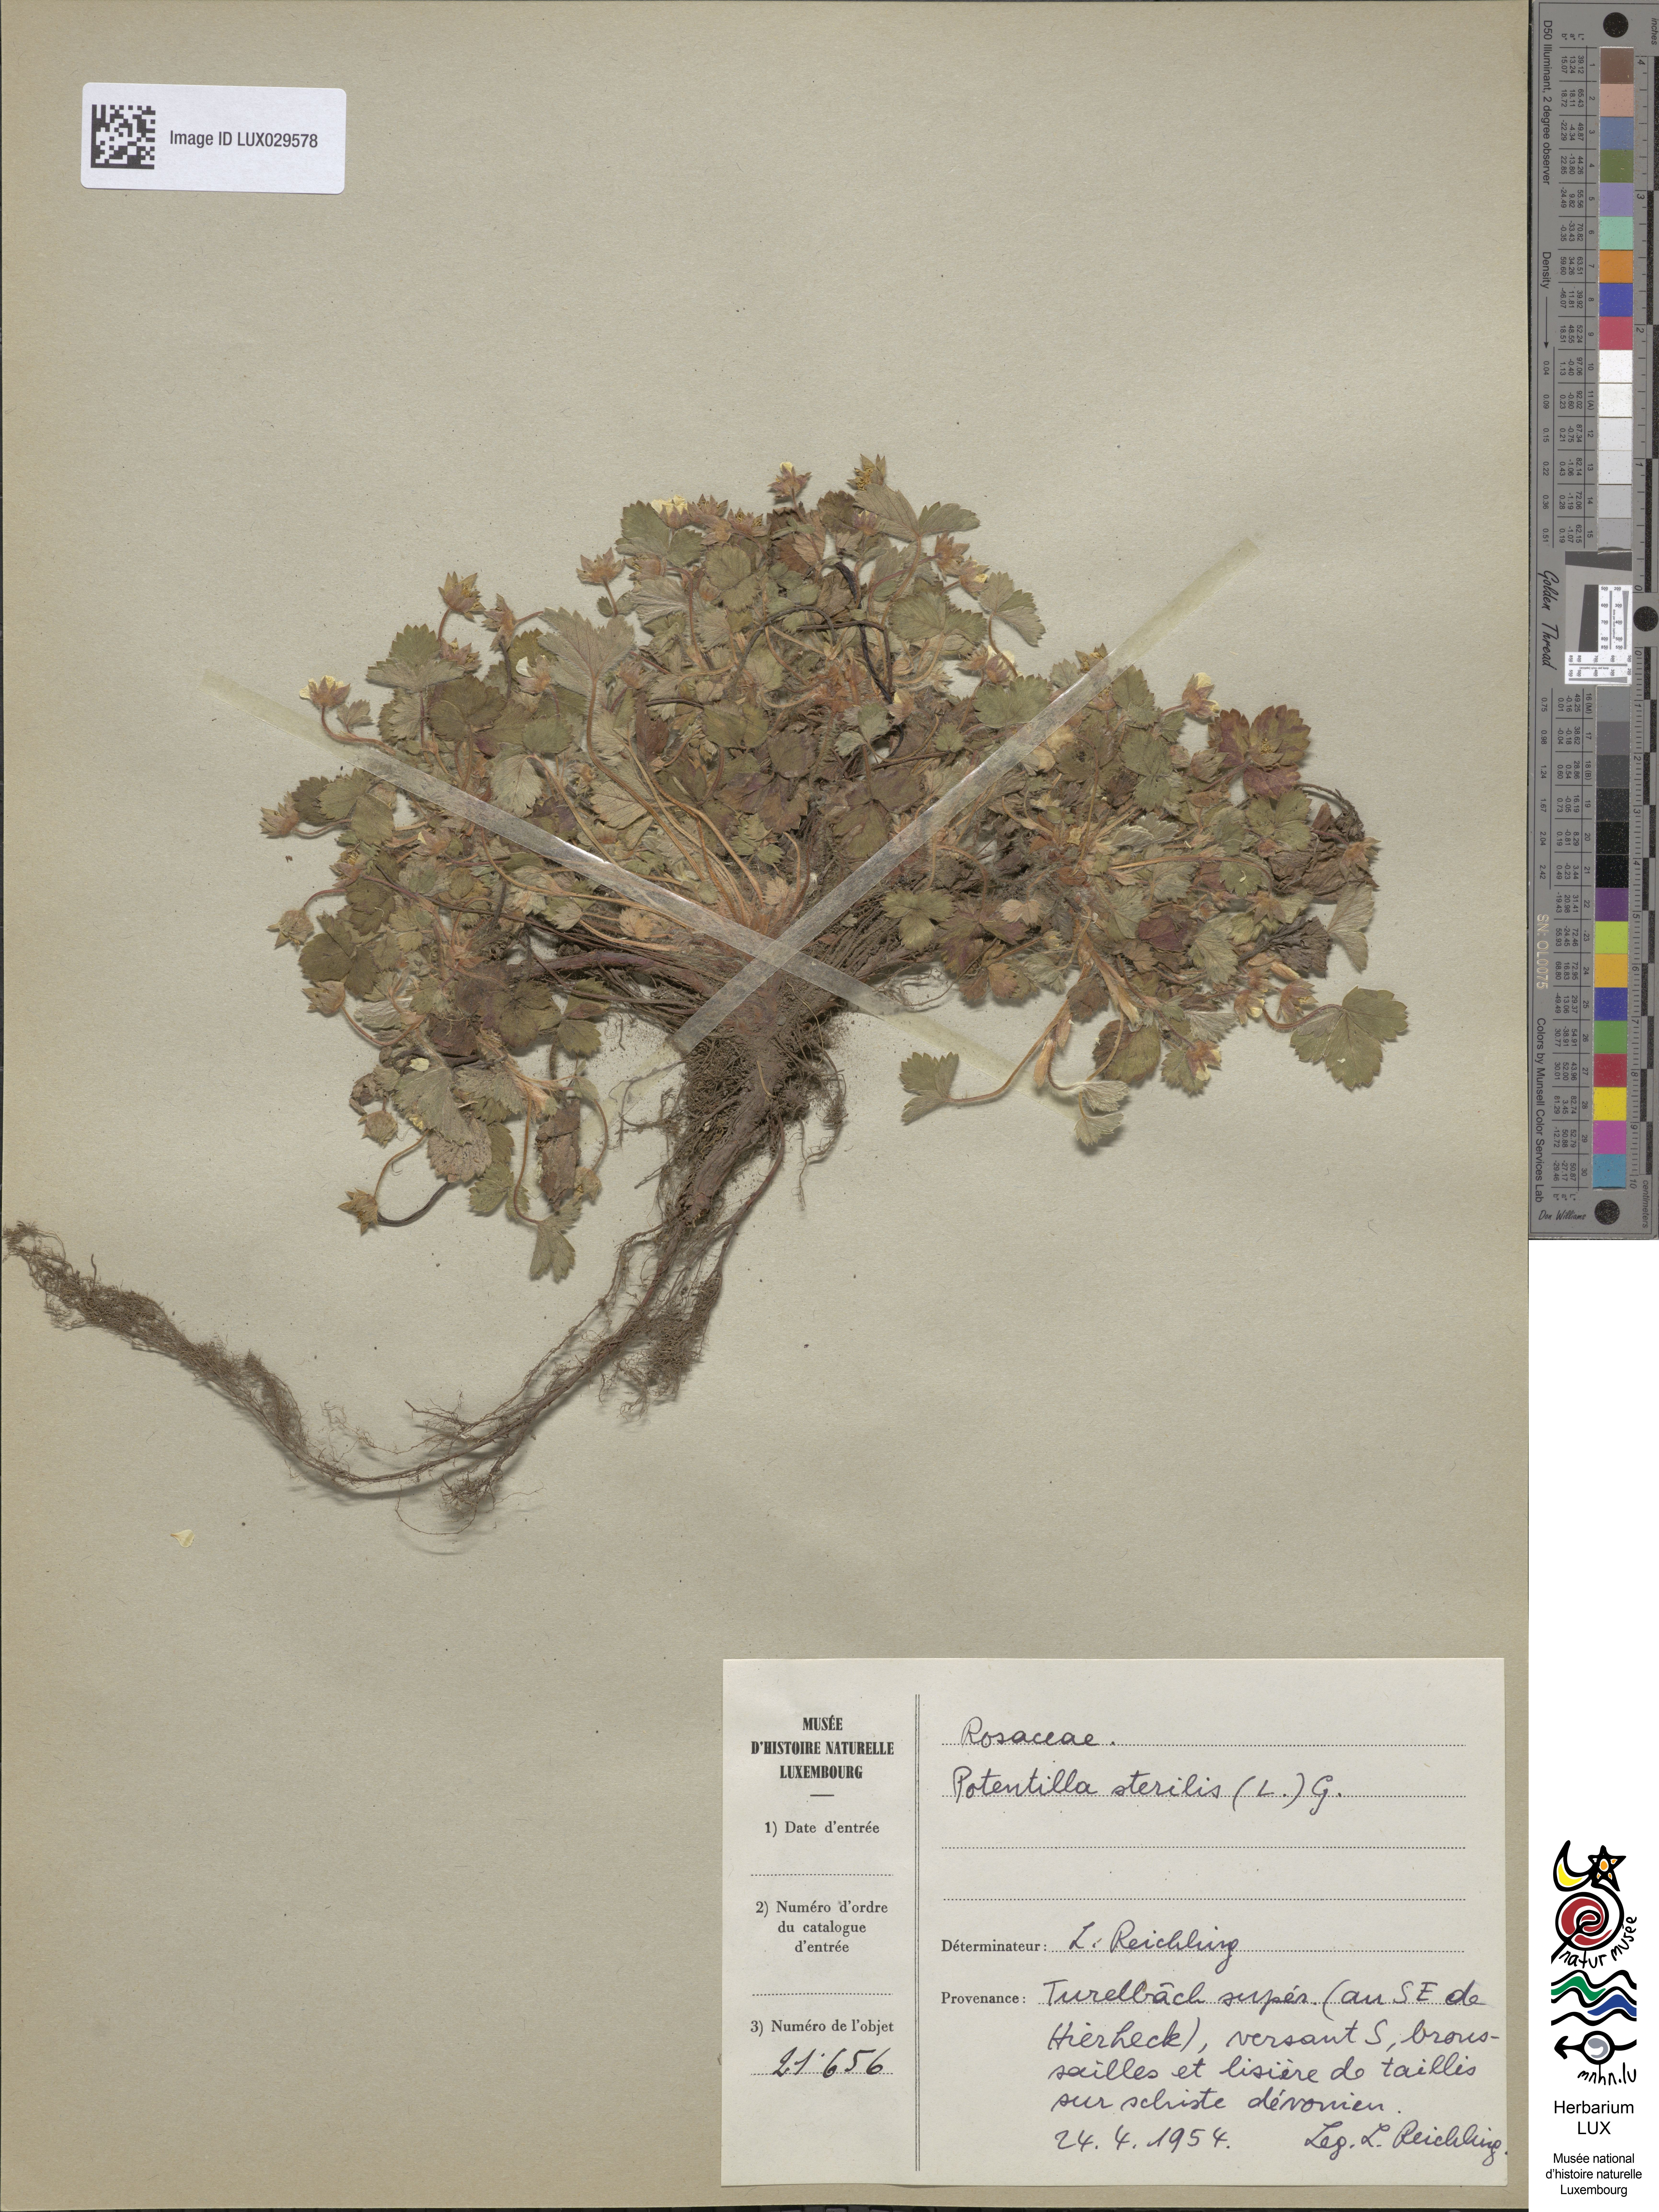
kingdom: Plantae
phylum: Tracheophyta
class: Magnoliopsida
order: Rosales
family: Rosaceae
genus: Potentilla
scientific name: Potentilla sterilis
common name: Barren strawberry
